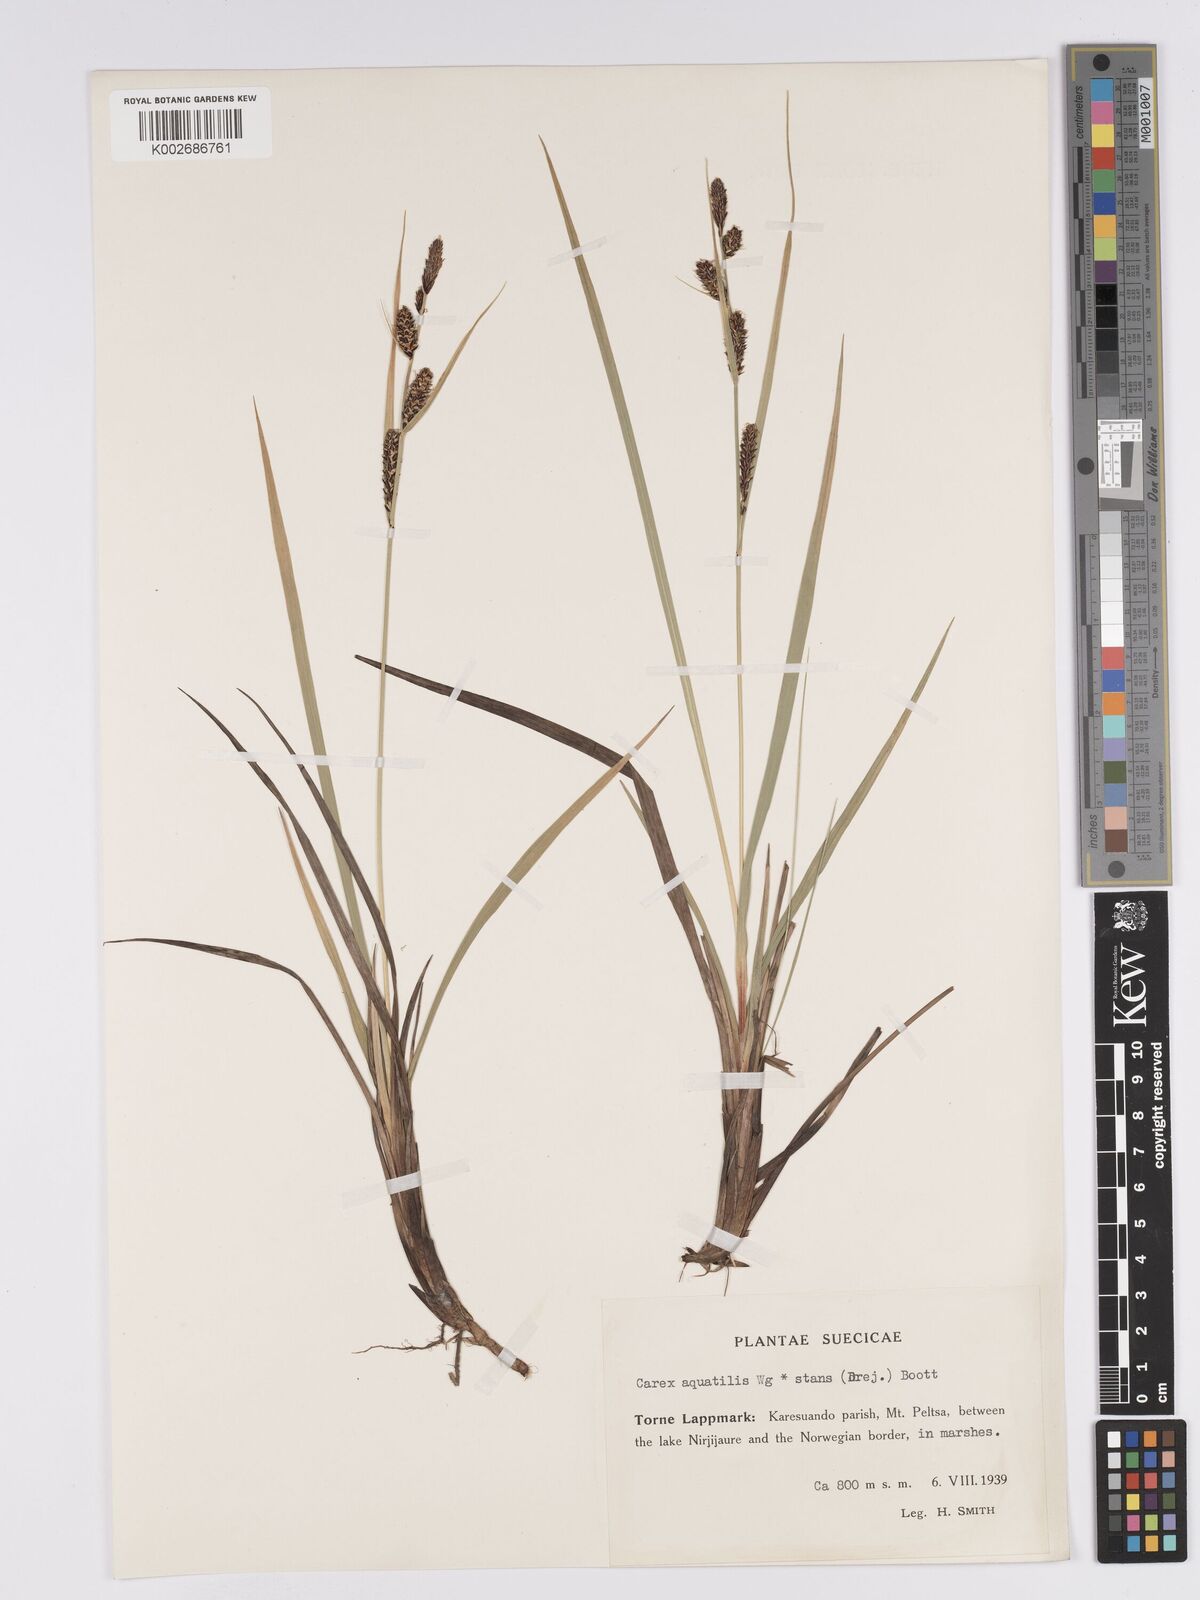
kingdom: Plantae
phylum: Tracheophyta
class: Liliopsida
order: Poales
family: Cyperaceae
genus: Carex
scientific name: Carex aquatilis
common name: Water sedge
